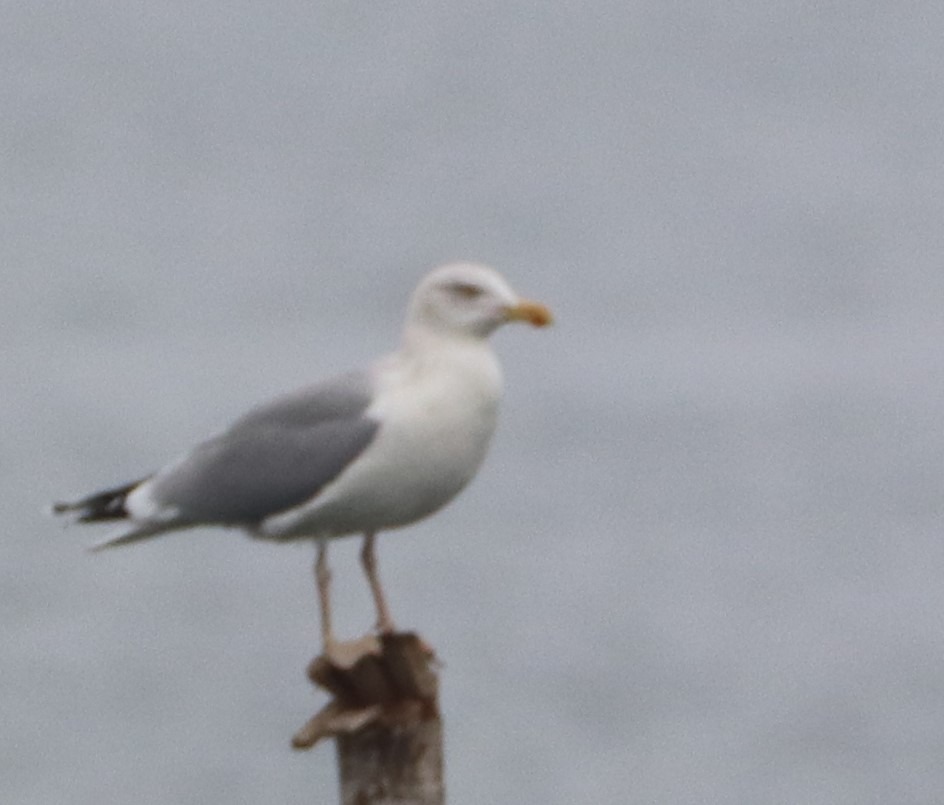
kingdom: Animalia
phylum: Chordata
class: Aves
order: Charadriiformes
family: Laridae
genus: Larus
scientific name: Larus argentatus
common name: Sølvmåge
